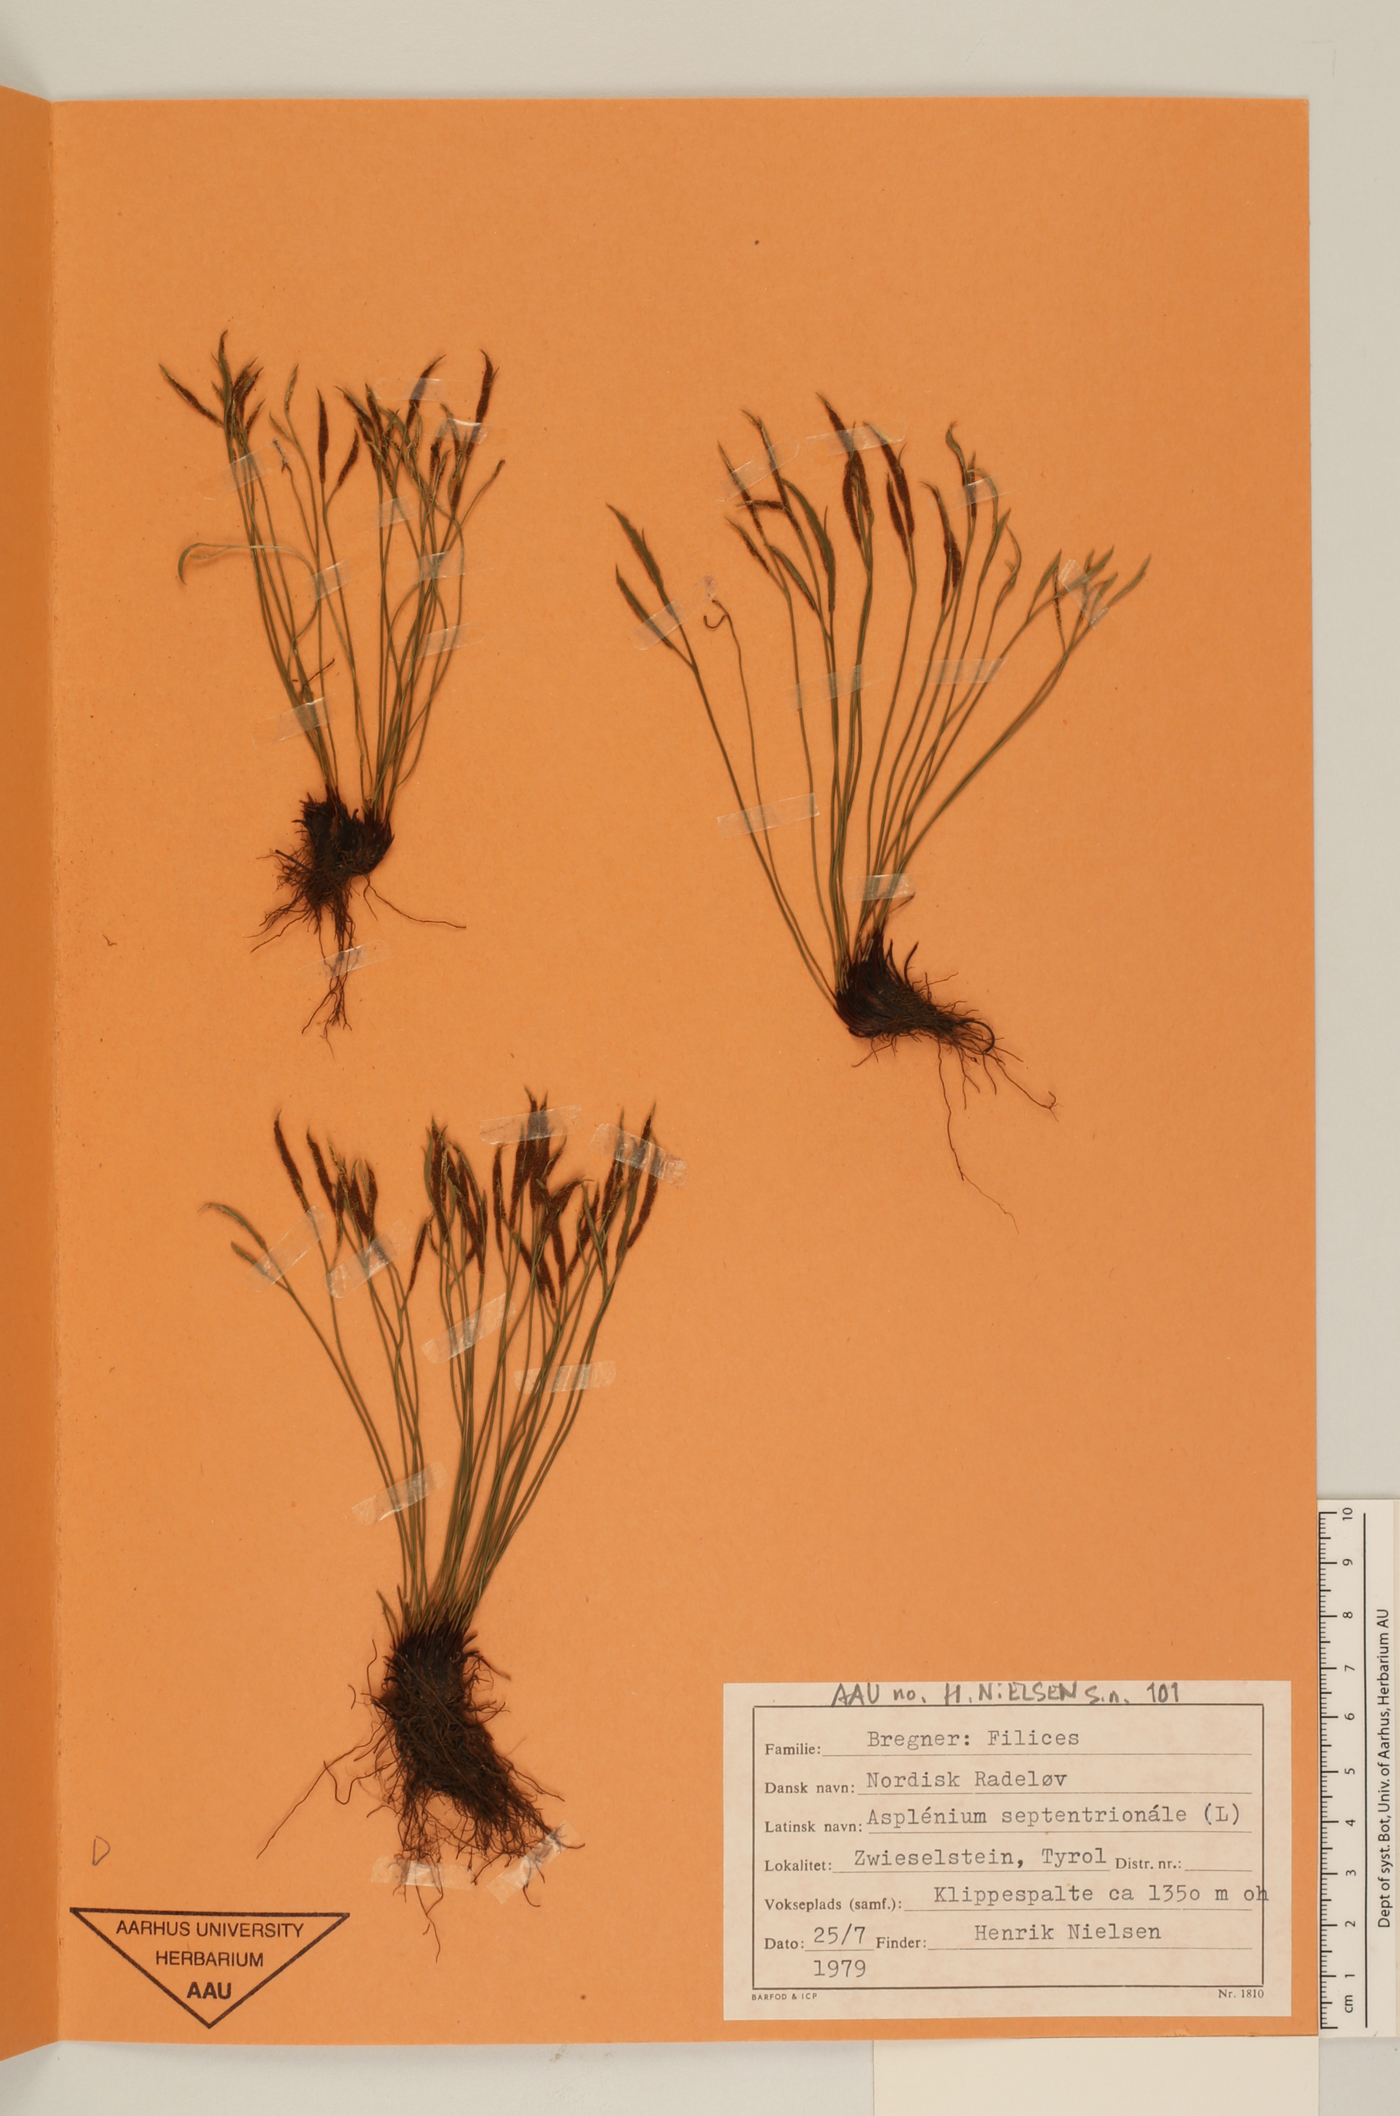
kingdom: Plantae
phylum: Tracheophyta
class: Polypodiopsida
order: Polypodiales
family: Aspleniaceae
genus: Asplenium
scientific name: Asplenium septentrionale
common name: Forked spleenwort
